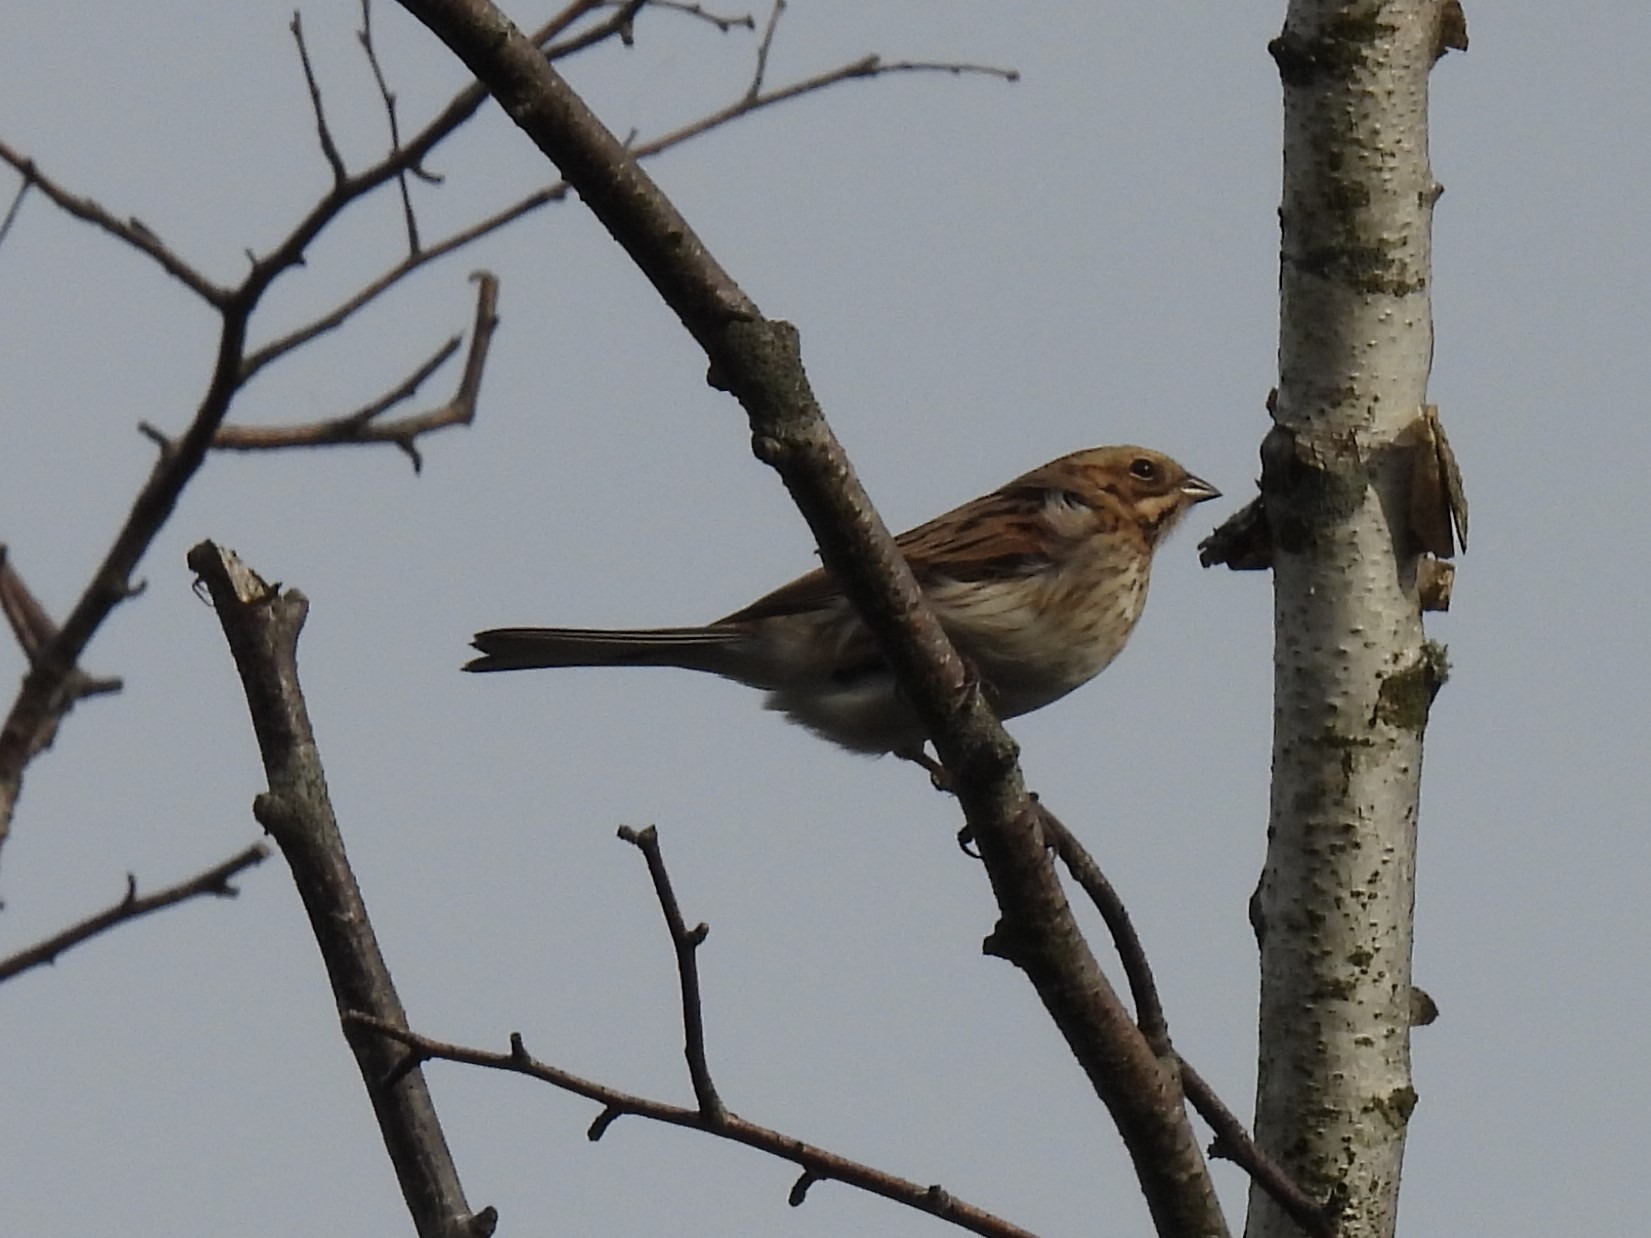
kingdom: Animalia
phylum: Chordata
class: Aves
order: Passeriformes
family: Emberizidae
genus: Emberiza
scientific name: Emberiza schoeniclus
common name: Rørspurv
